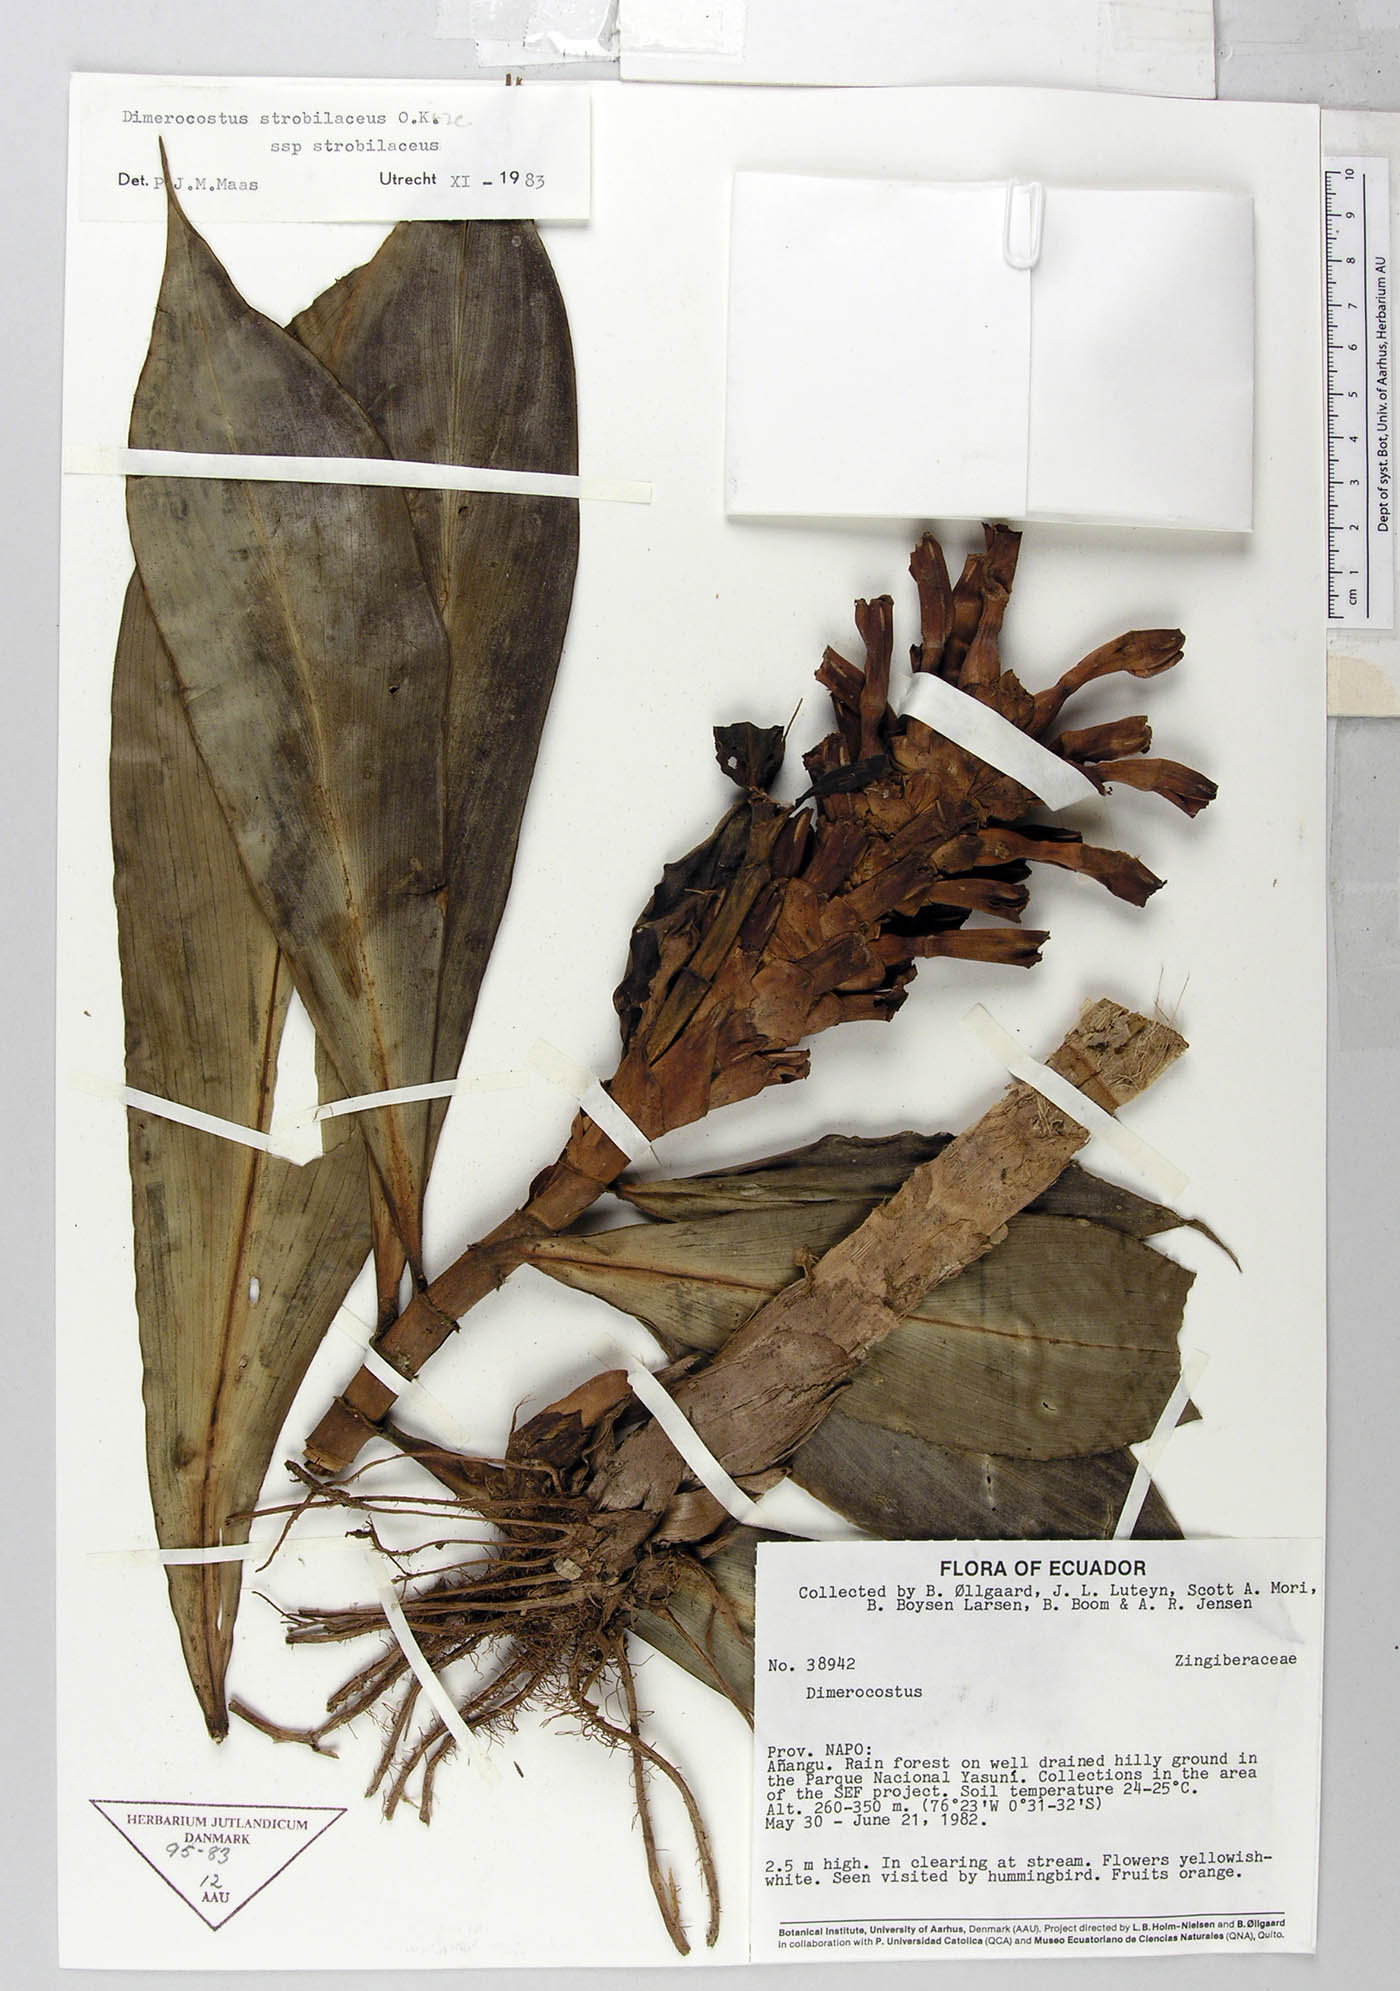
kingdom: Plantae
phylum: Tracheophyta
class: Liliopsida
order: Zingiberales
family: Costaceae
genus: Dimerocostus
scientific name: Dimerocostus strobilaceus
